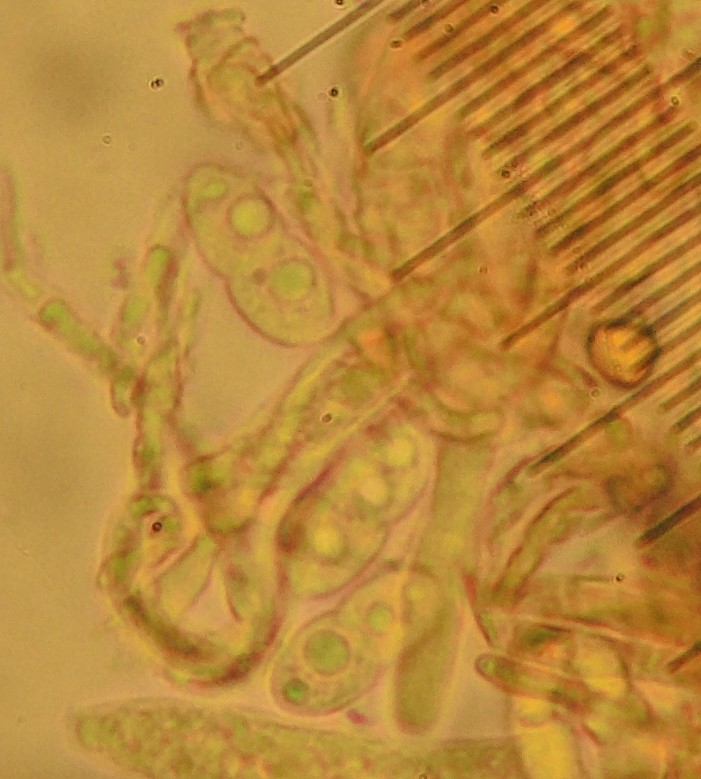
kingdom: Fungi
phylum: Ascomycota
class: Leotiomycetes
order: Helotiales
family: Pezizellaceae
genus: Rodwayella
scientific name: Rodwayella myricae
